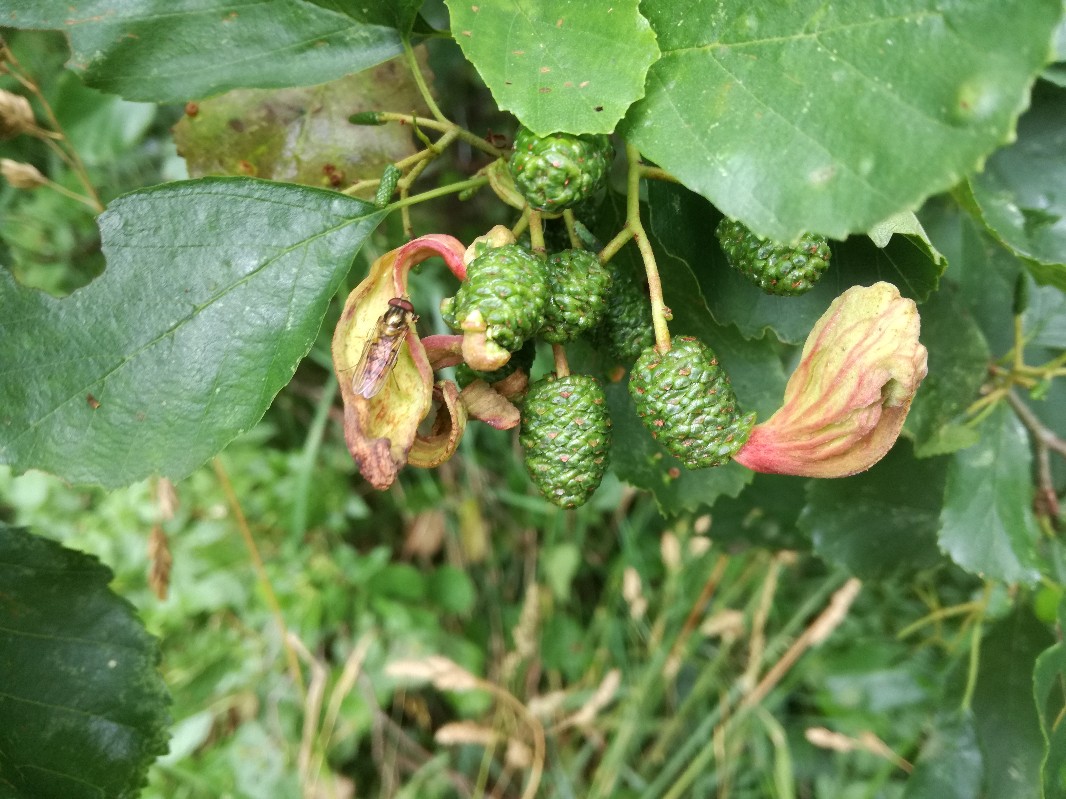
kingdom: Fungi
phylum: Ascomycota
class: Taphrinomycetes
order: Taphrinales
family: Taphrinaceae
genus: Taphrina
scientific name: Taphrina alni
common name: Alder tongue
